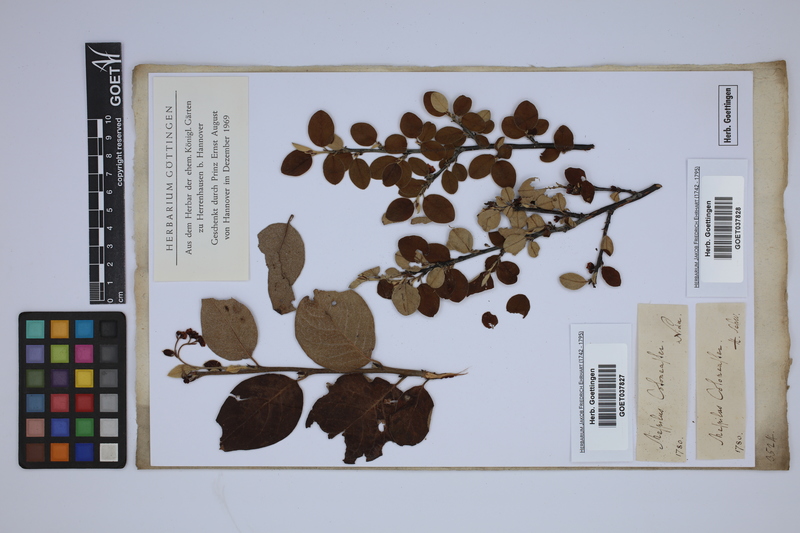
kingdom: Plantae
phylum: Tracheophyta
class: Magnoliopsida
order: Rosales
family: Rosaceae
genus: Cotoneaster
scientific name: Cotoneaster integerrimus
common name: Wild cotoneaster
